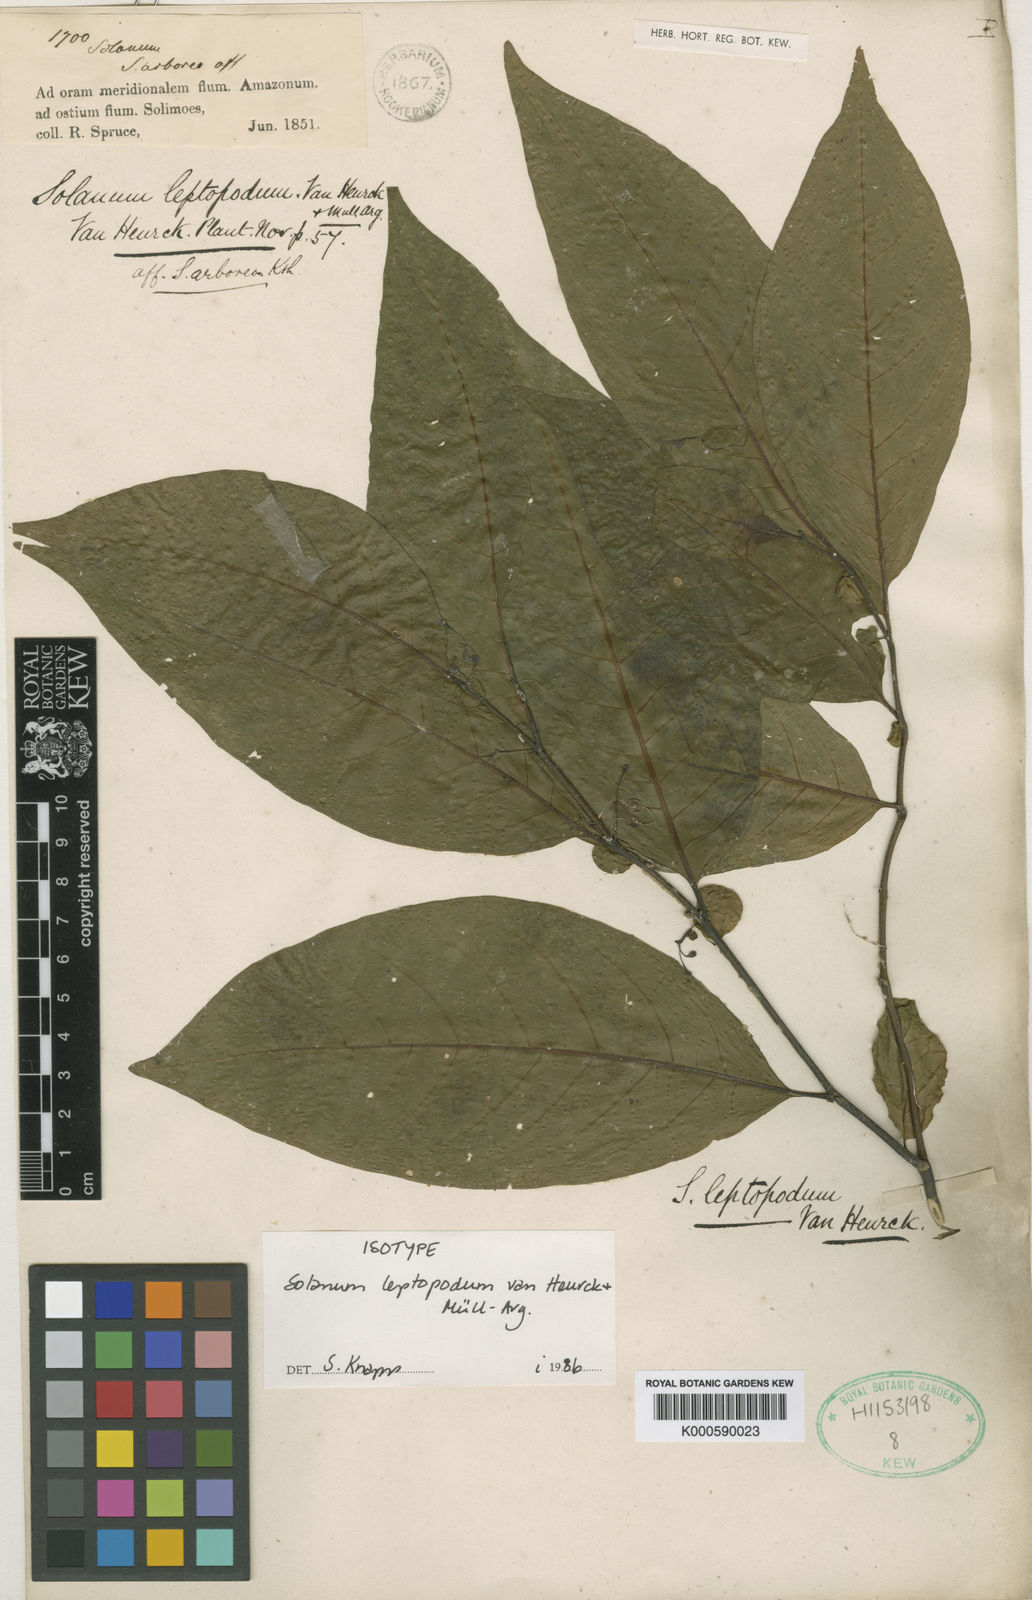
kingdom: Plantae
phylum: Tracheophyta
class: Magnoliopsida
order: Solanales
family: Solanaceae
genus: Solanum
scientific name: Solanum
